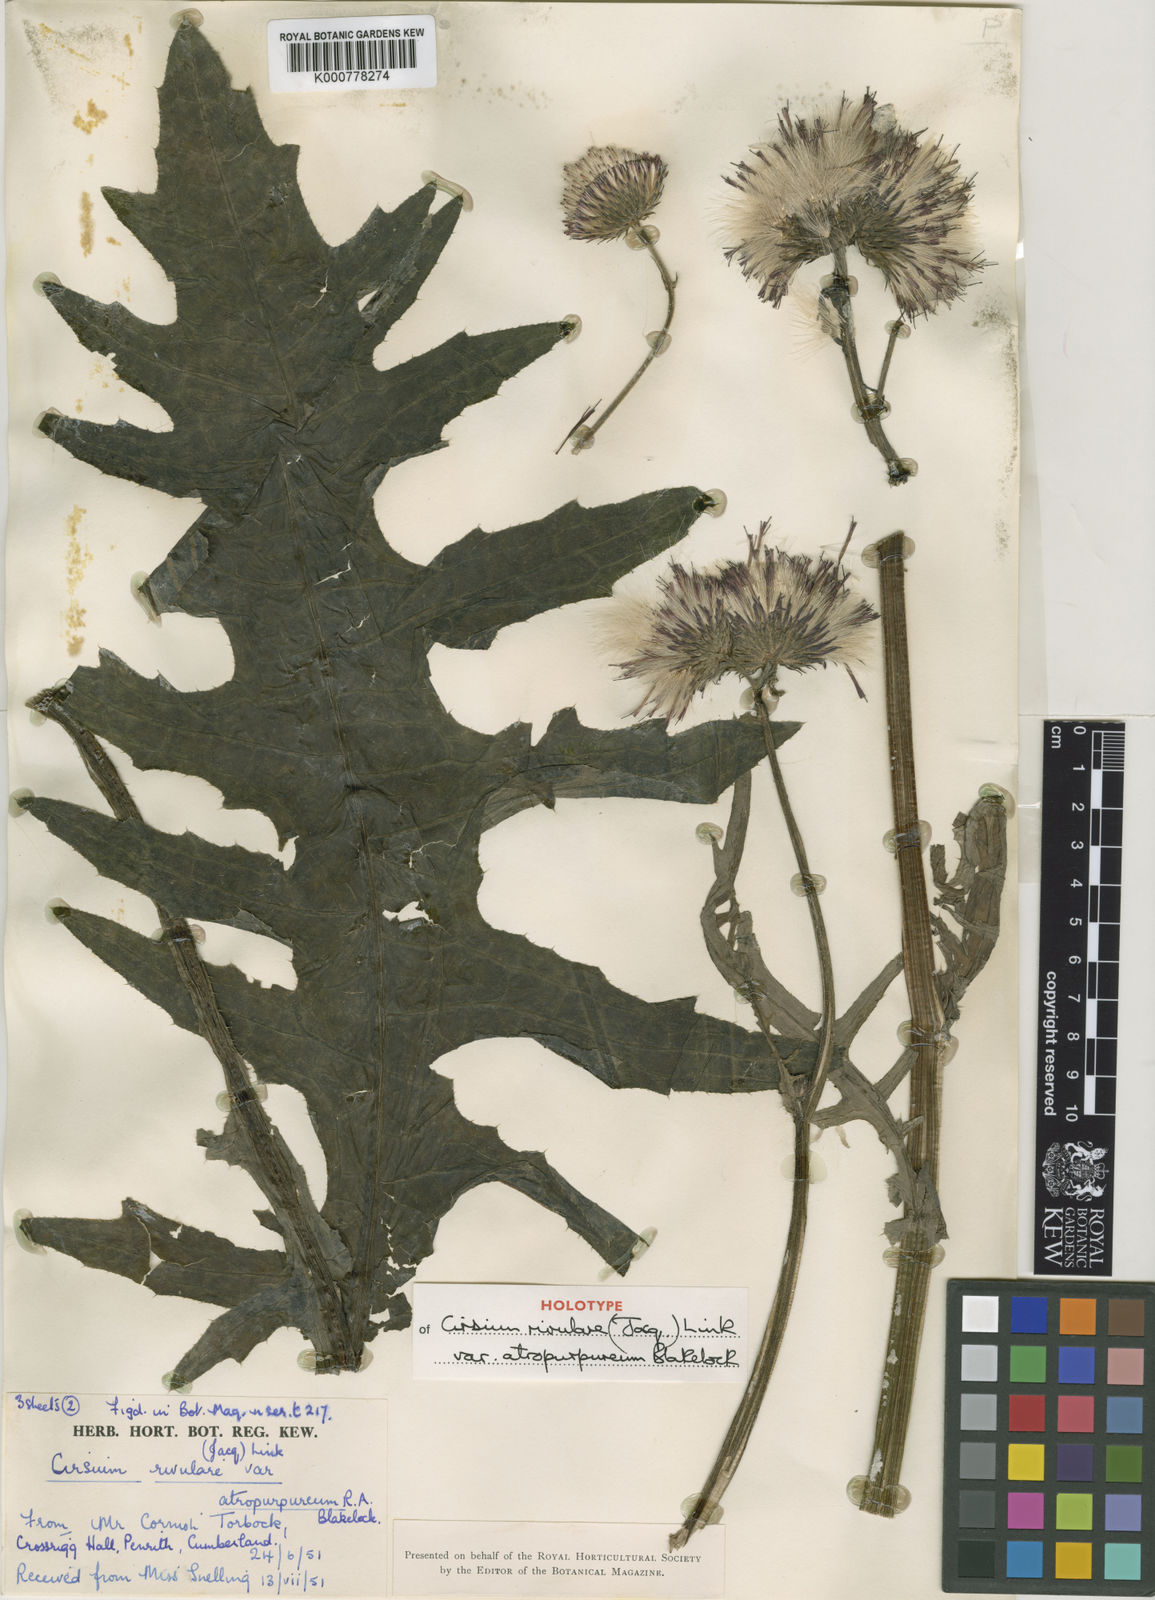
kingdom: Plantae
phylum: Tracheophyta
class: Magnoliopsida
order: Asterales
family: Asteraceae
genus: Cirsium
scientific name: Cirsium rivulare
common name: Brook thistle
